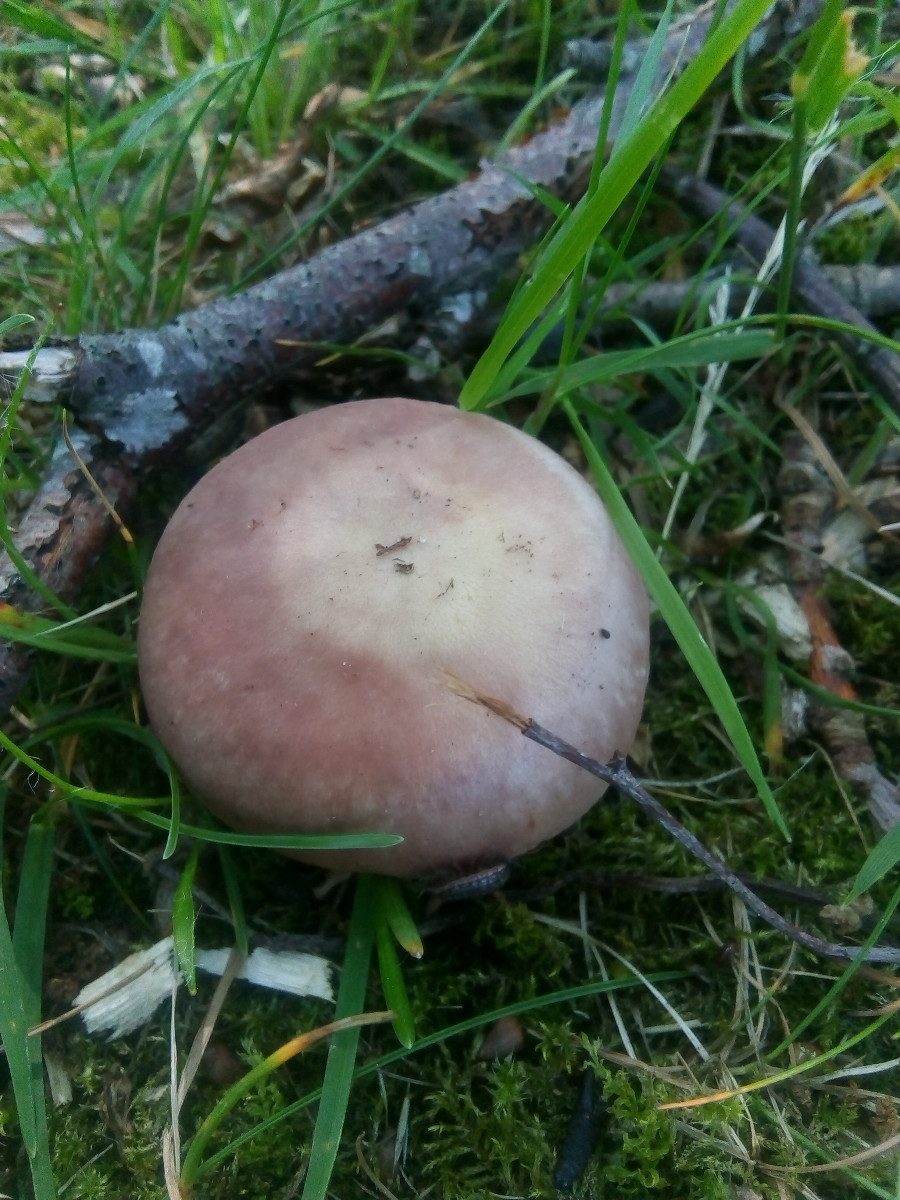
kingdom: Fungi
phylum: Basidiomycota
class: Agaricomycetes
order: Russulales
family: Russulaceae
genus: Russula
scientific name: Russula vesca
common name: spiselig skørhat
